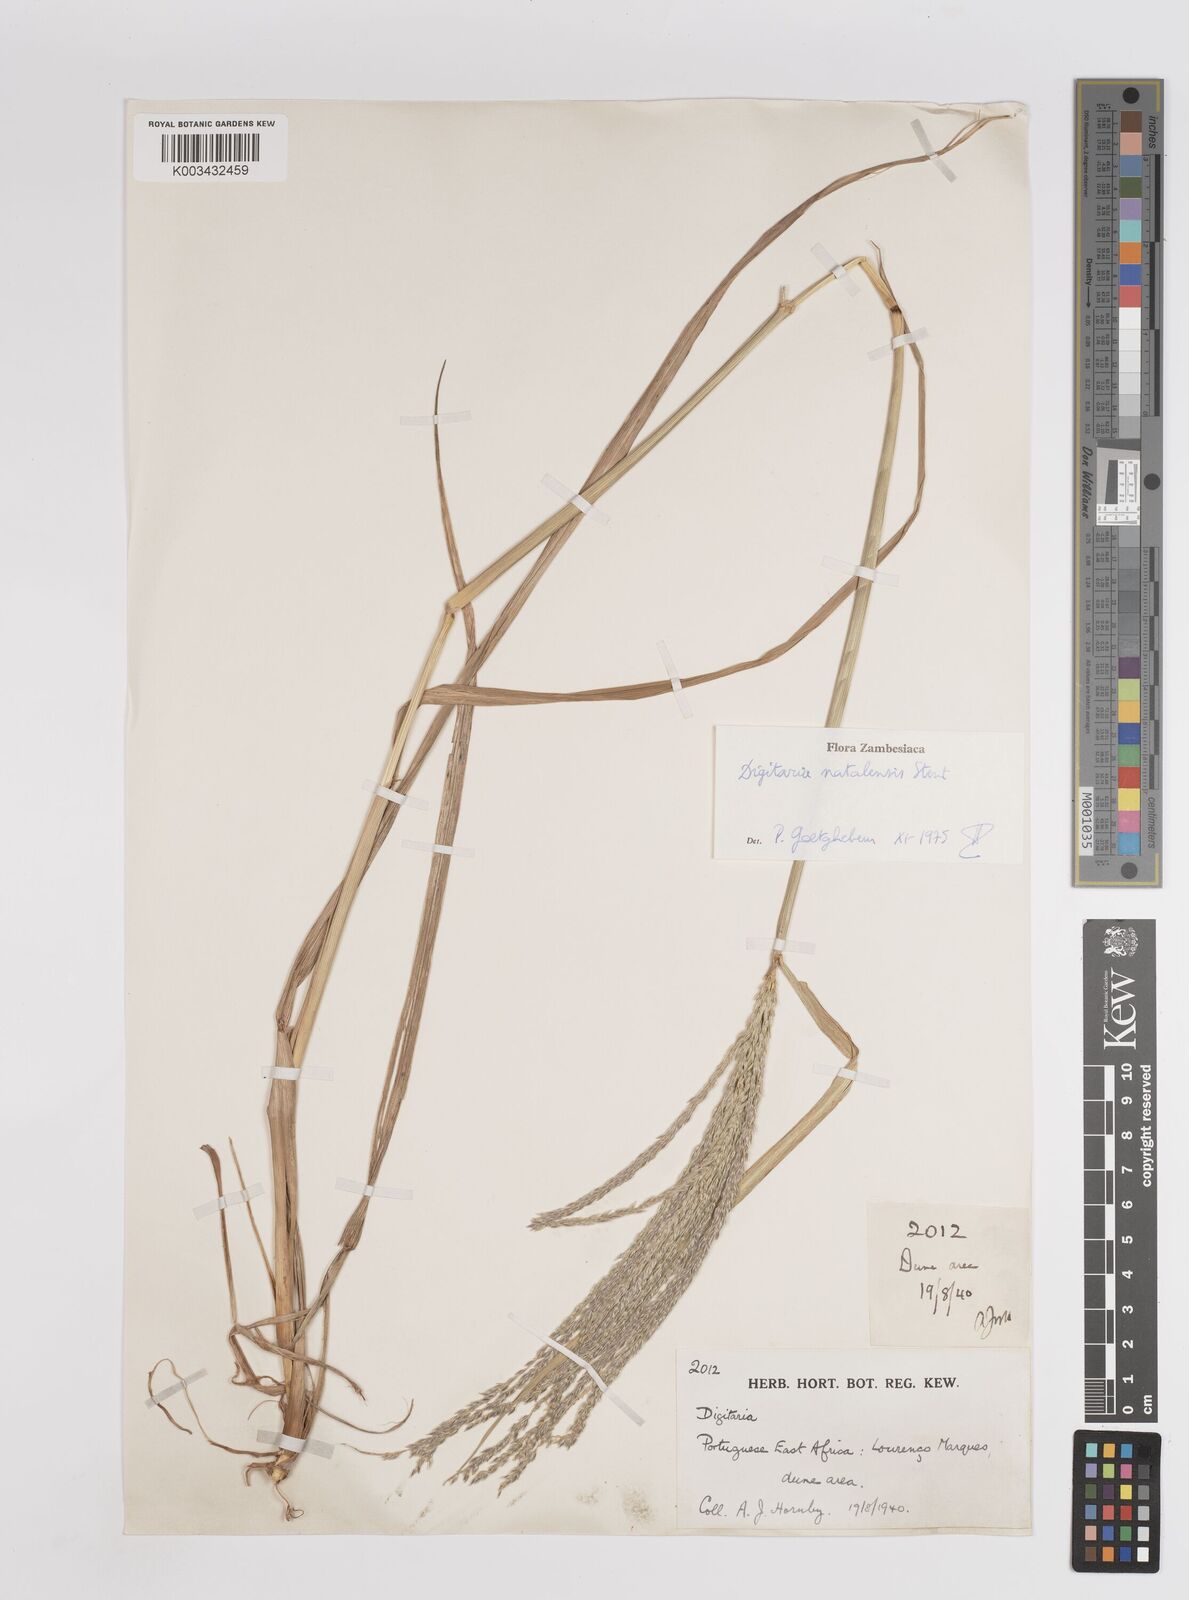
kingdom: Plantae
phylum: Tracheophyta
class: Liliopsida
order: Poales
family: Poaceae
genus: Digitaria
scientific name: Digitaria natalensis
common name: Coast finger grass
